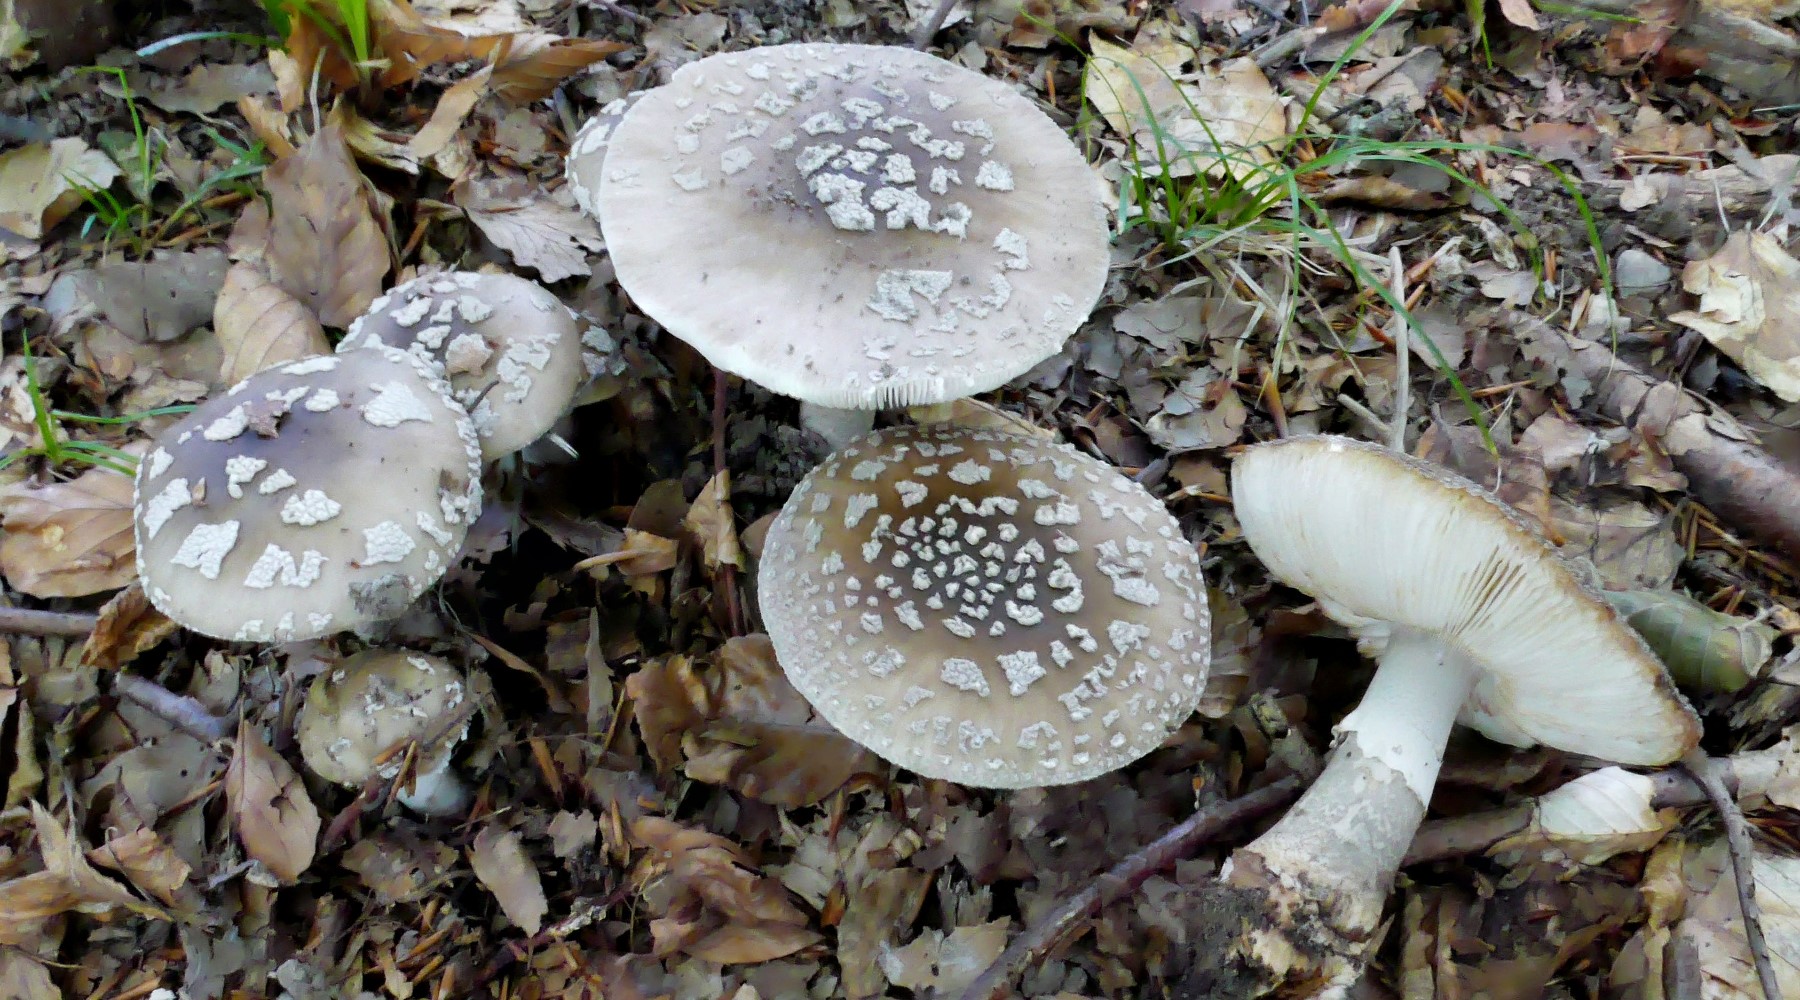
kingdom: Fungi
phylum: Basidiomycota
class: Agaricomycetes
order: Agaricales
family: Amanitaceae
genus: Amanita
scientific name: Amanita
